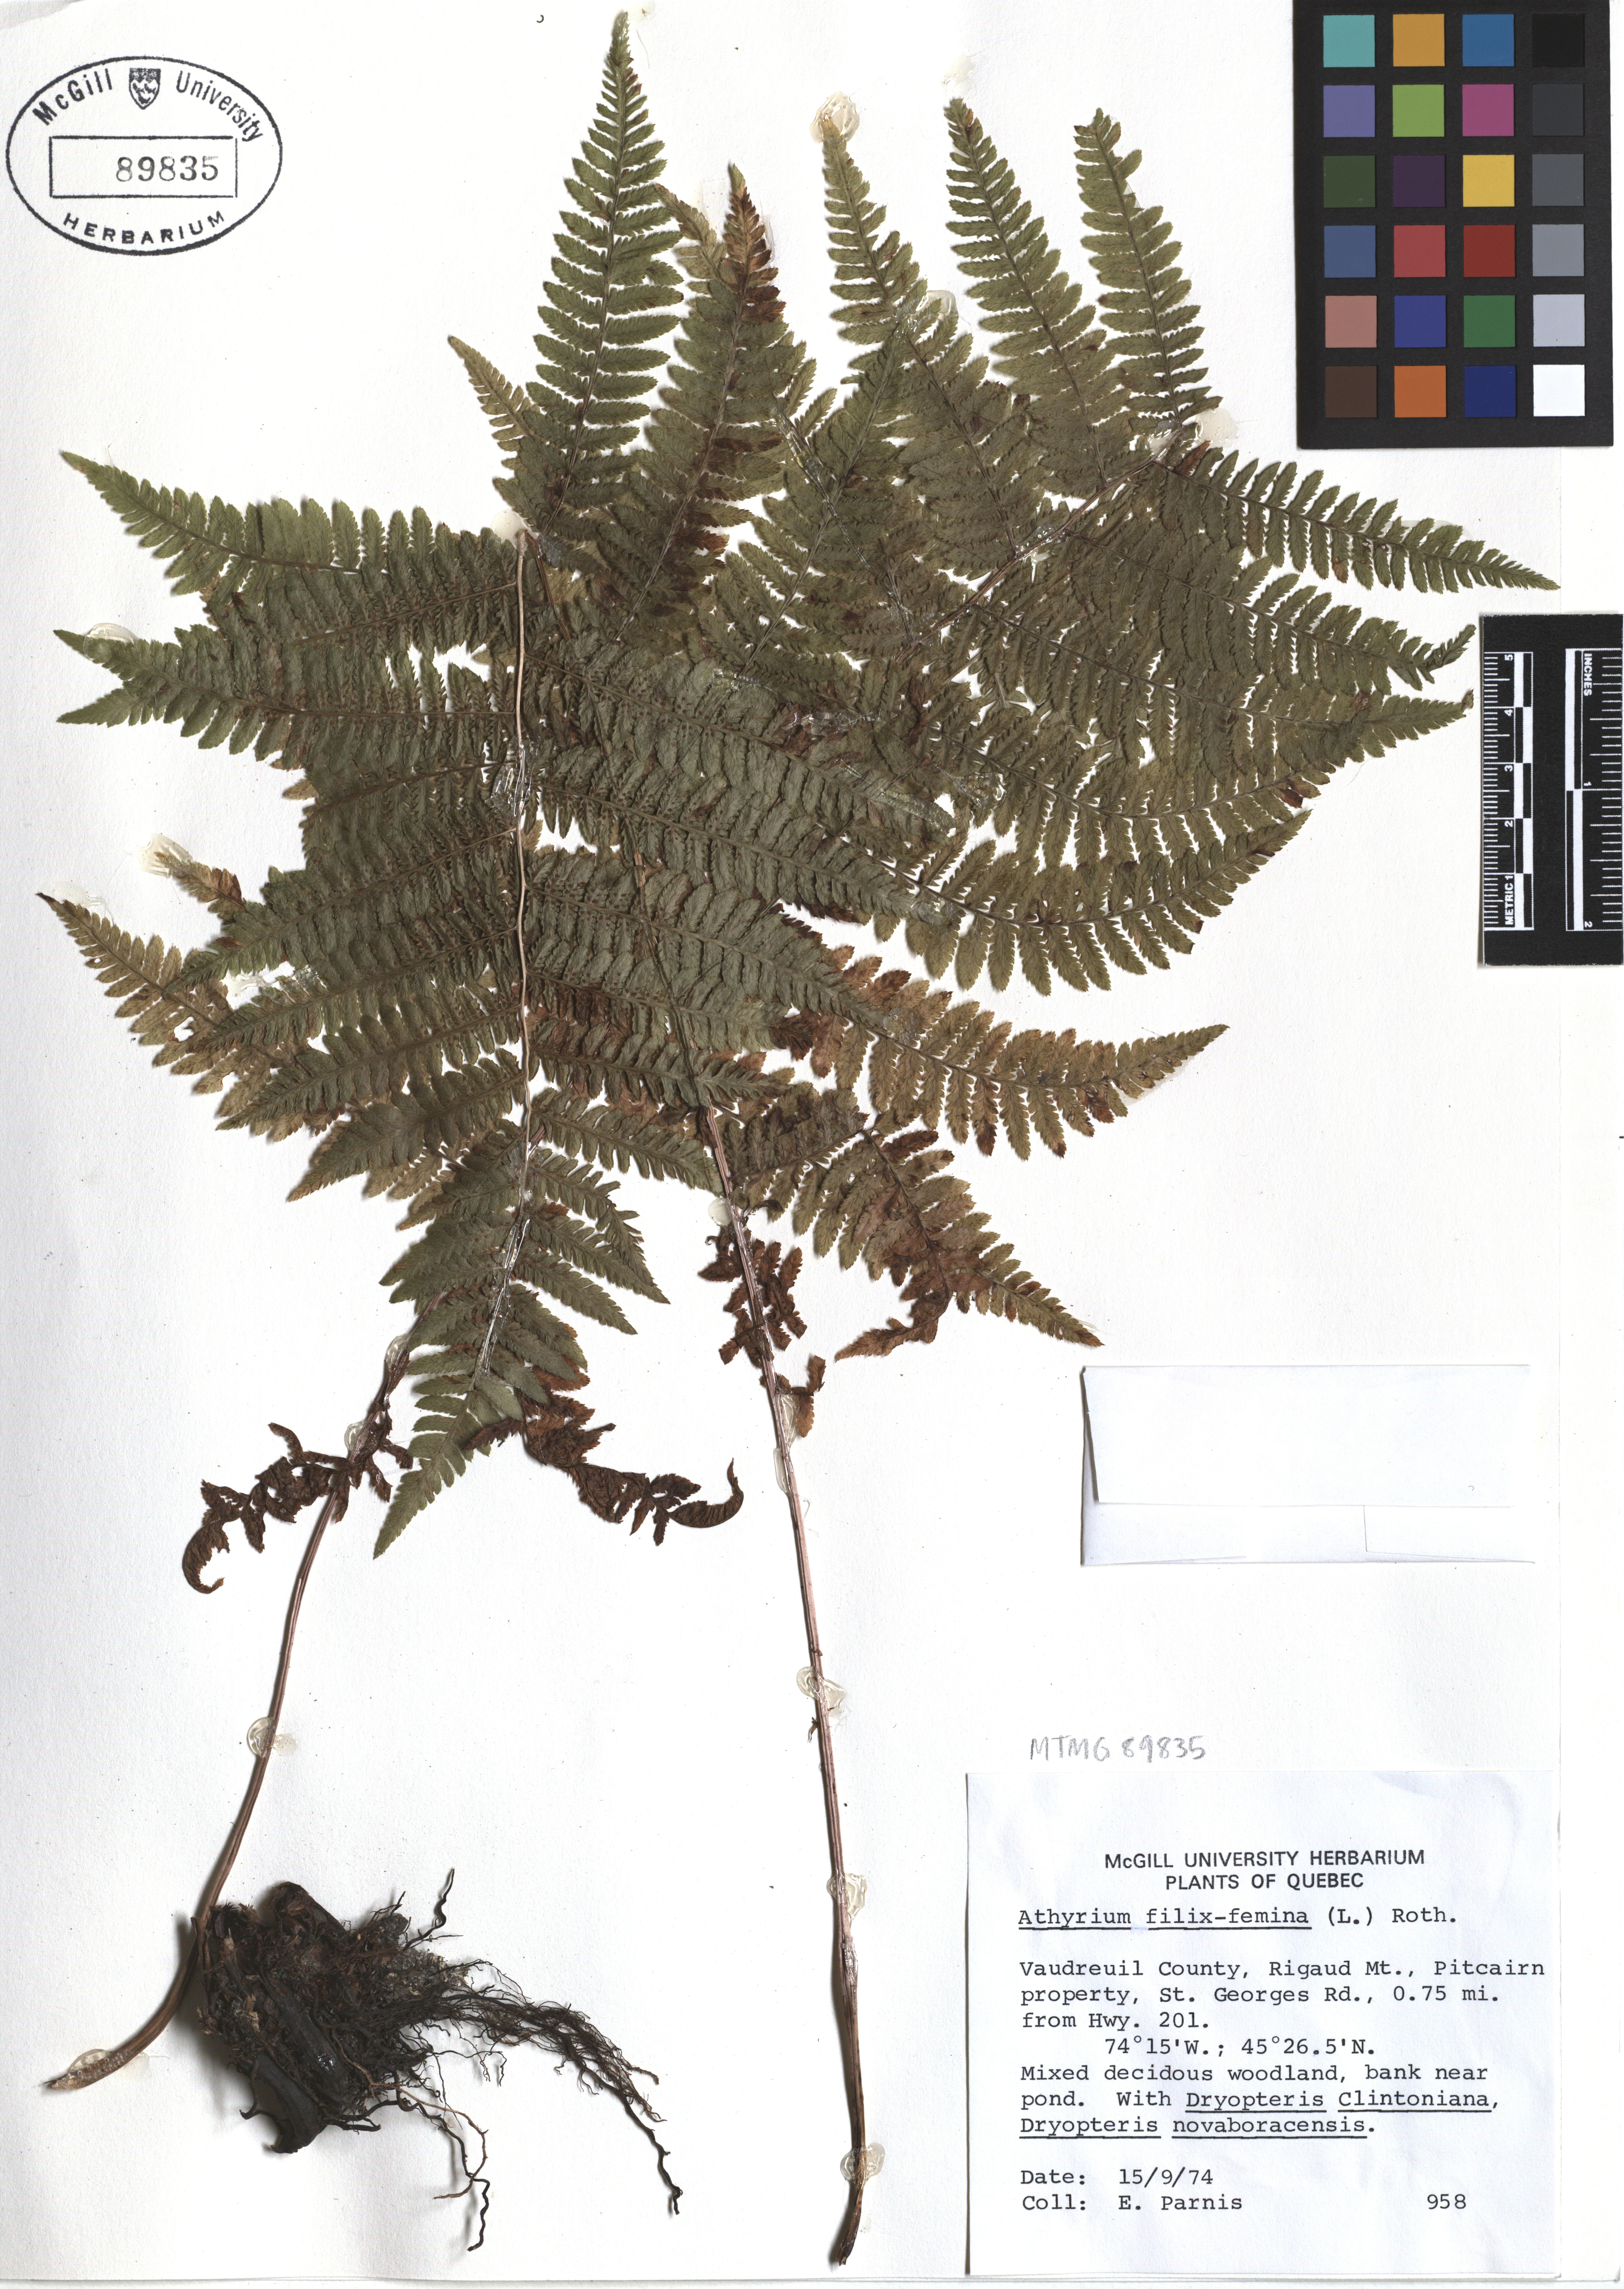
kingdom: Plantae
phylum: Tracheophyta
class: Polypodiopsida
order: Polypodiales
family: Athyriaceae
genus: Athyrium
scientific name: Athyrium filix-femina
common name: Lady fern
